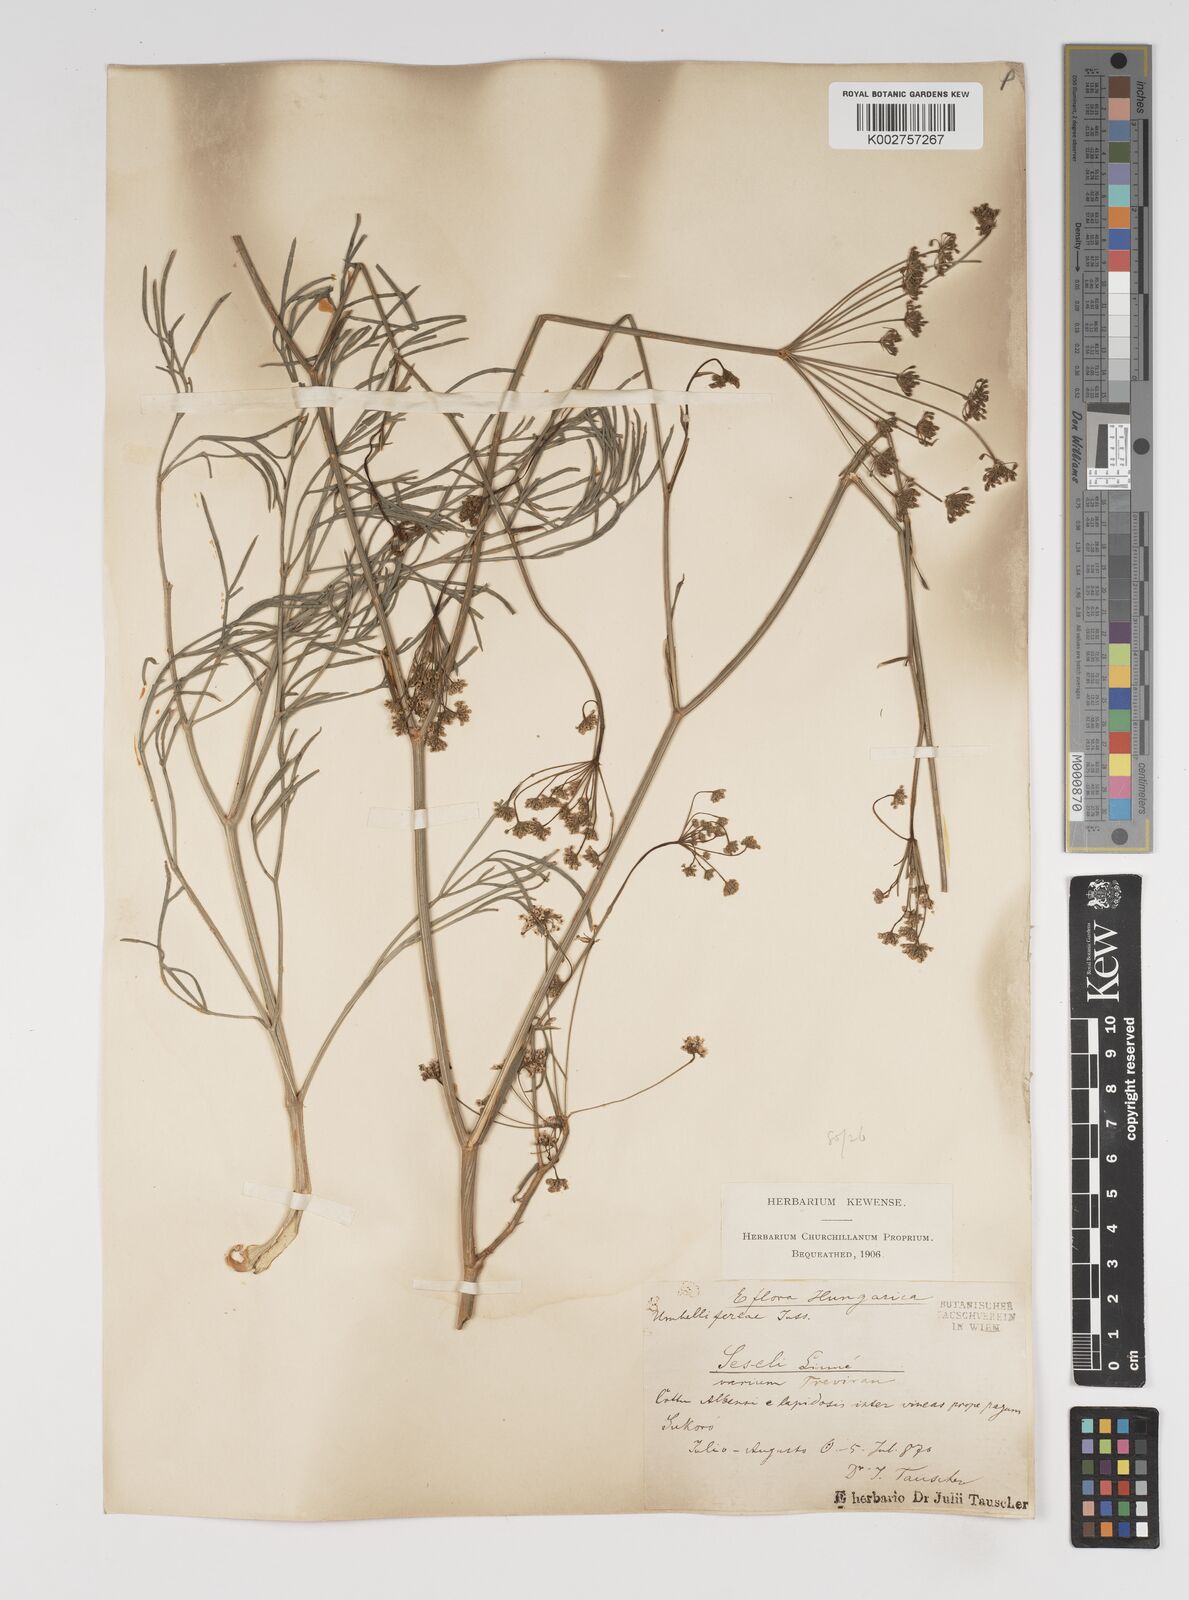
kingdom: Plantae
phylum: Tracheophyta
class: Magnoliopsida
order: Apiales
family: Apiaceae
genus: Seseli
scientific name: Seseli pallasii
